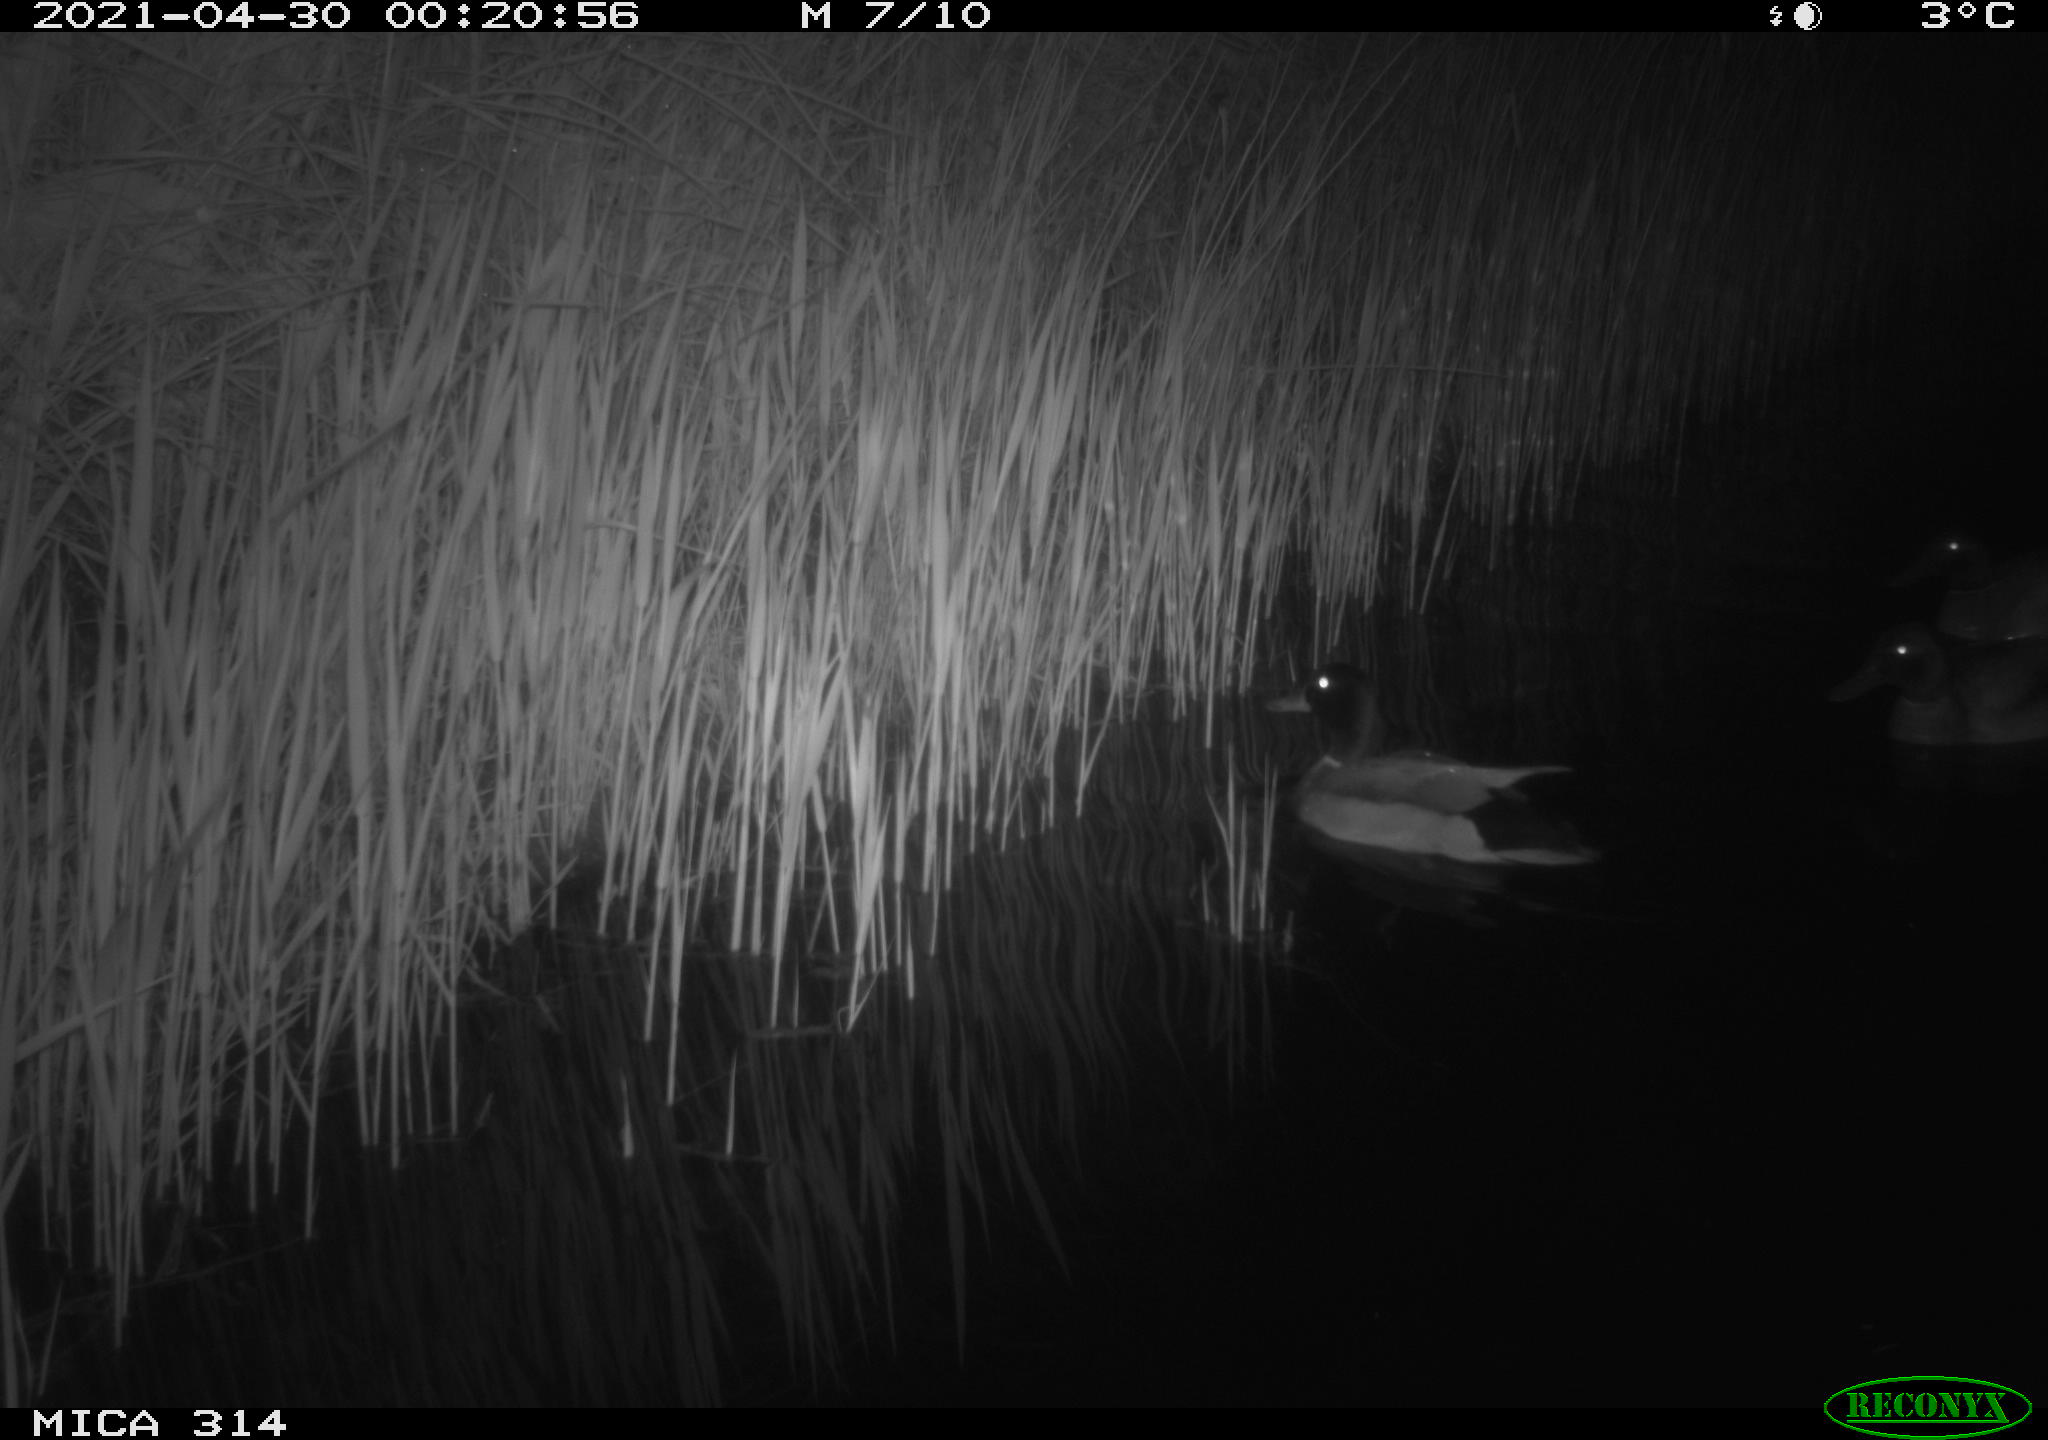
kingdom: Animalia
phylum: Chordata
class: Aves
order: Anseriformes
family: Anatidae
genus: Anas
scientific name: Anas platyrhynchos
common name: Mallard
